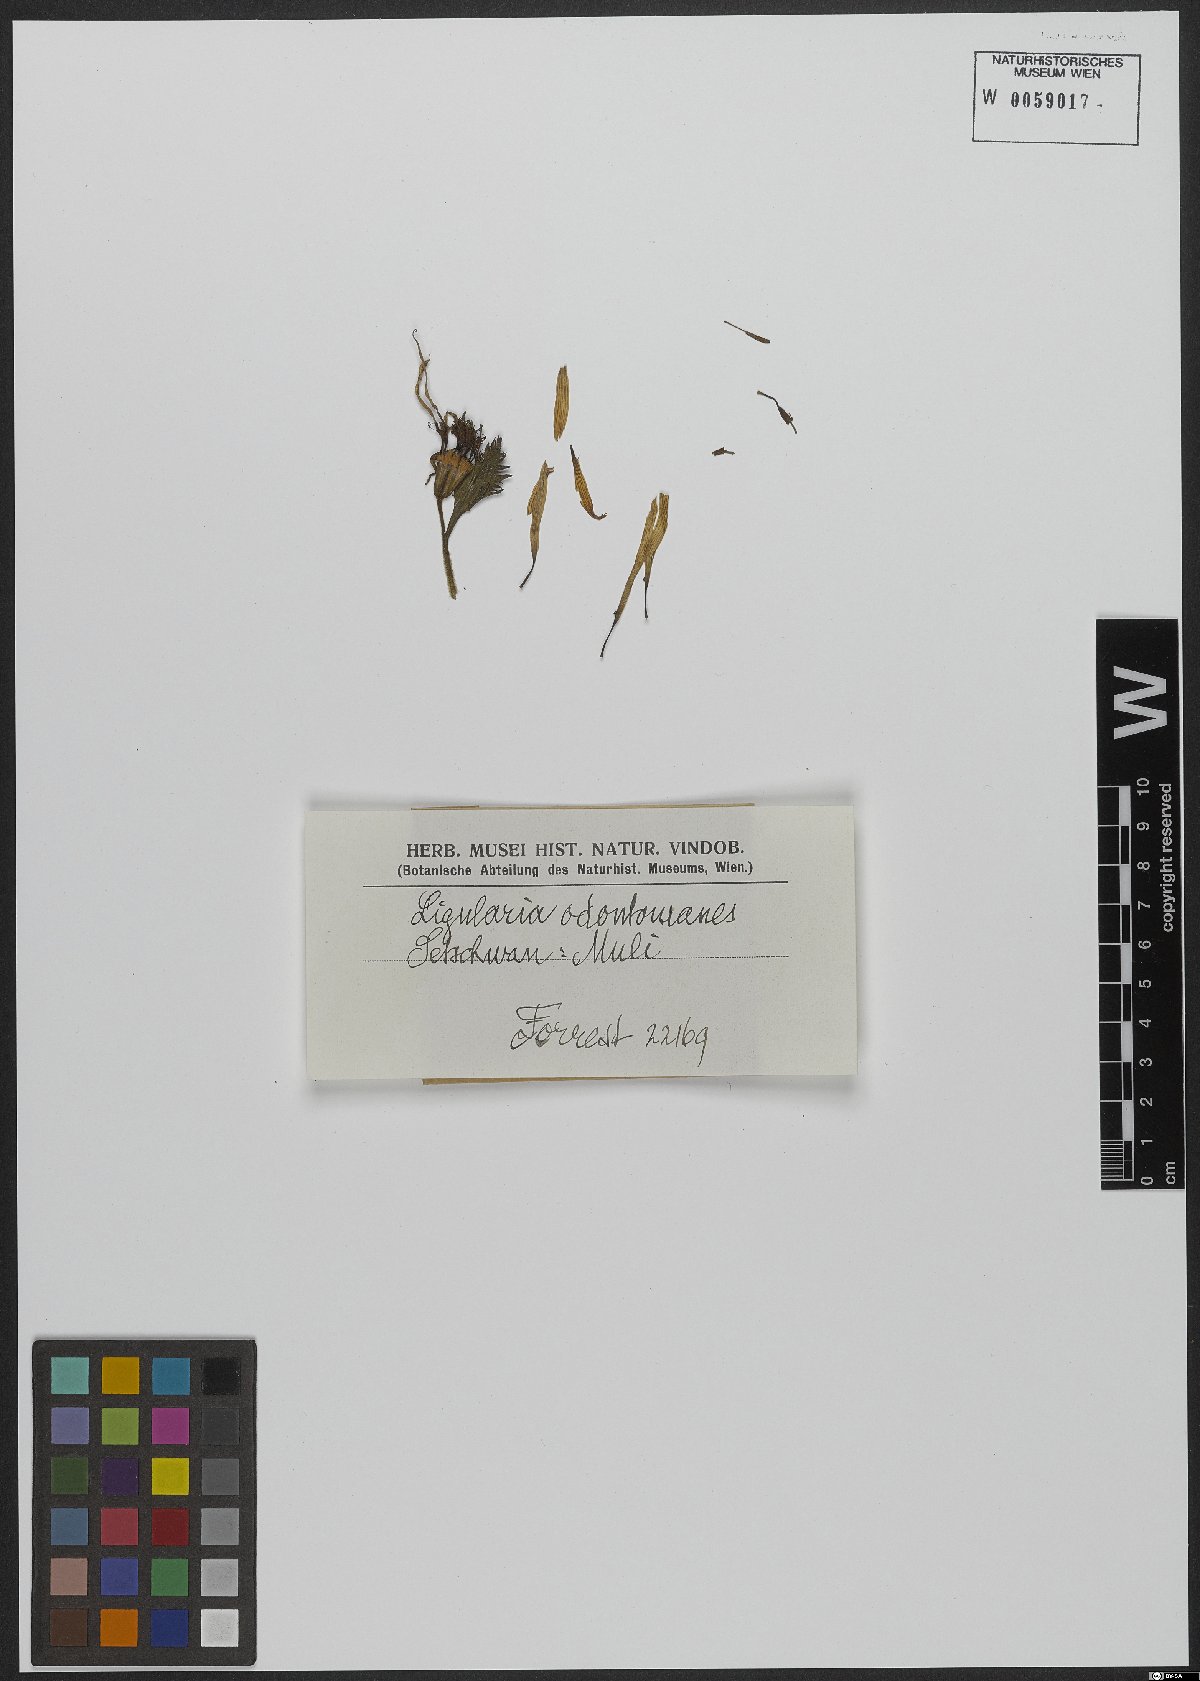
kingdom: Plantae
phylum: Tracheophyta
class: Magnoliopsida
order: Asterales
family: Asteraceae
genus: Ligularia
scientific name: Ligularia odontomanes
